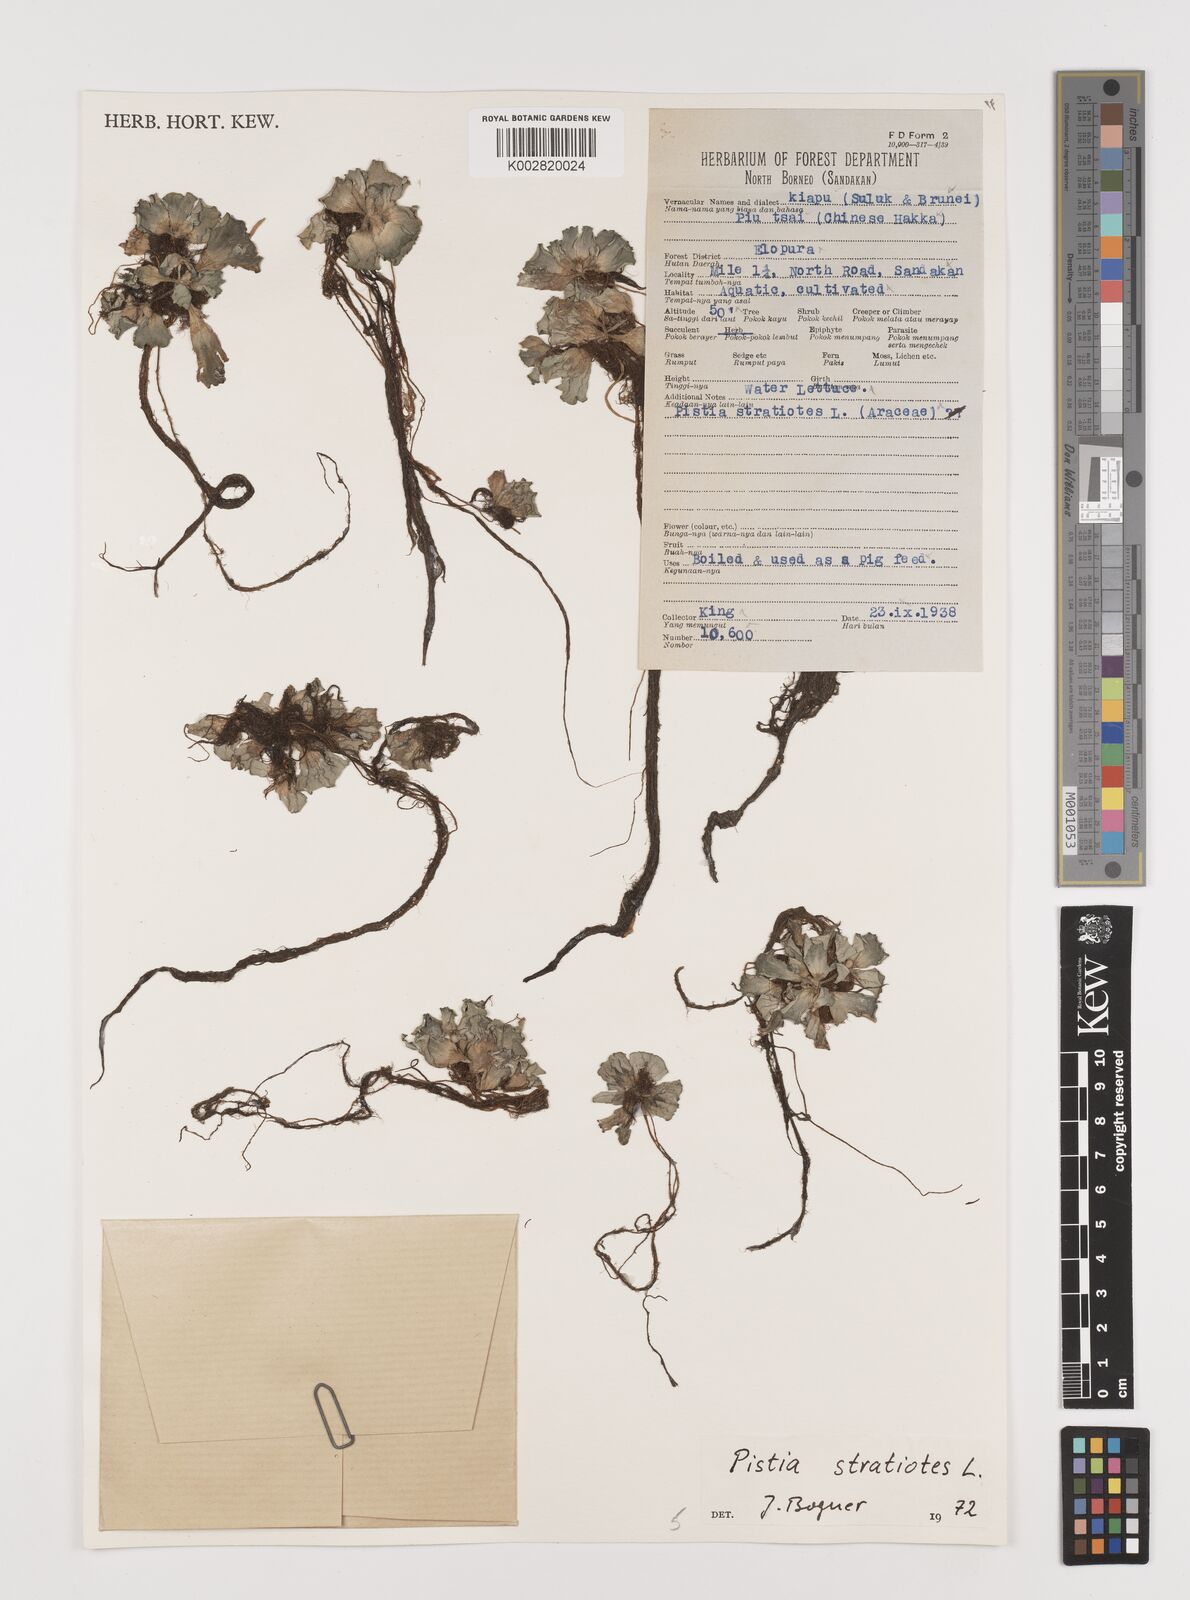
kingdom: Plantae
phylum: Tracheophyta
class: Liliopsida
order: Alismatales
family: Araceae
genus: Pistia
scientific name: Pistia stratiotes
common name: Water lettuce
